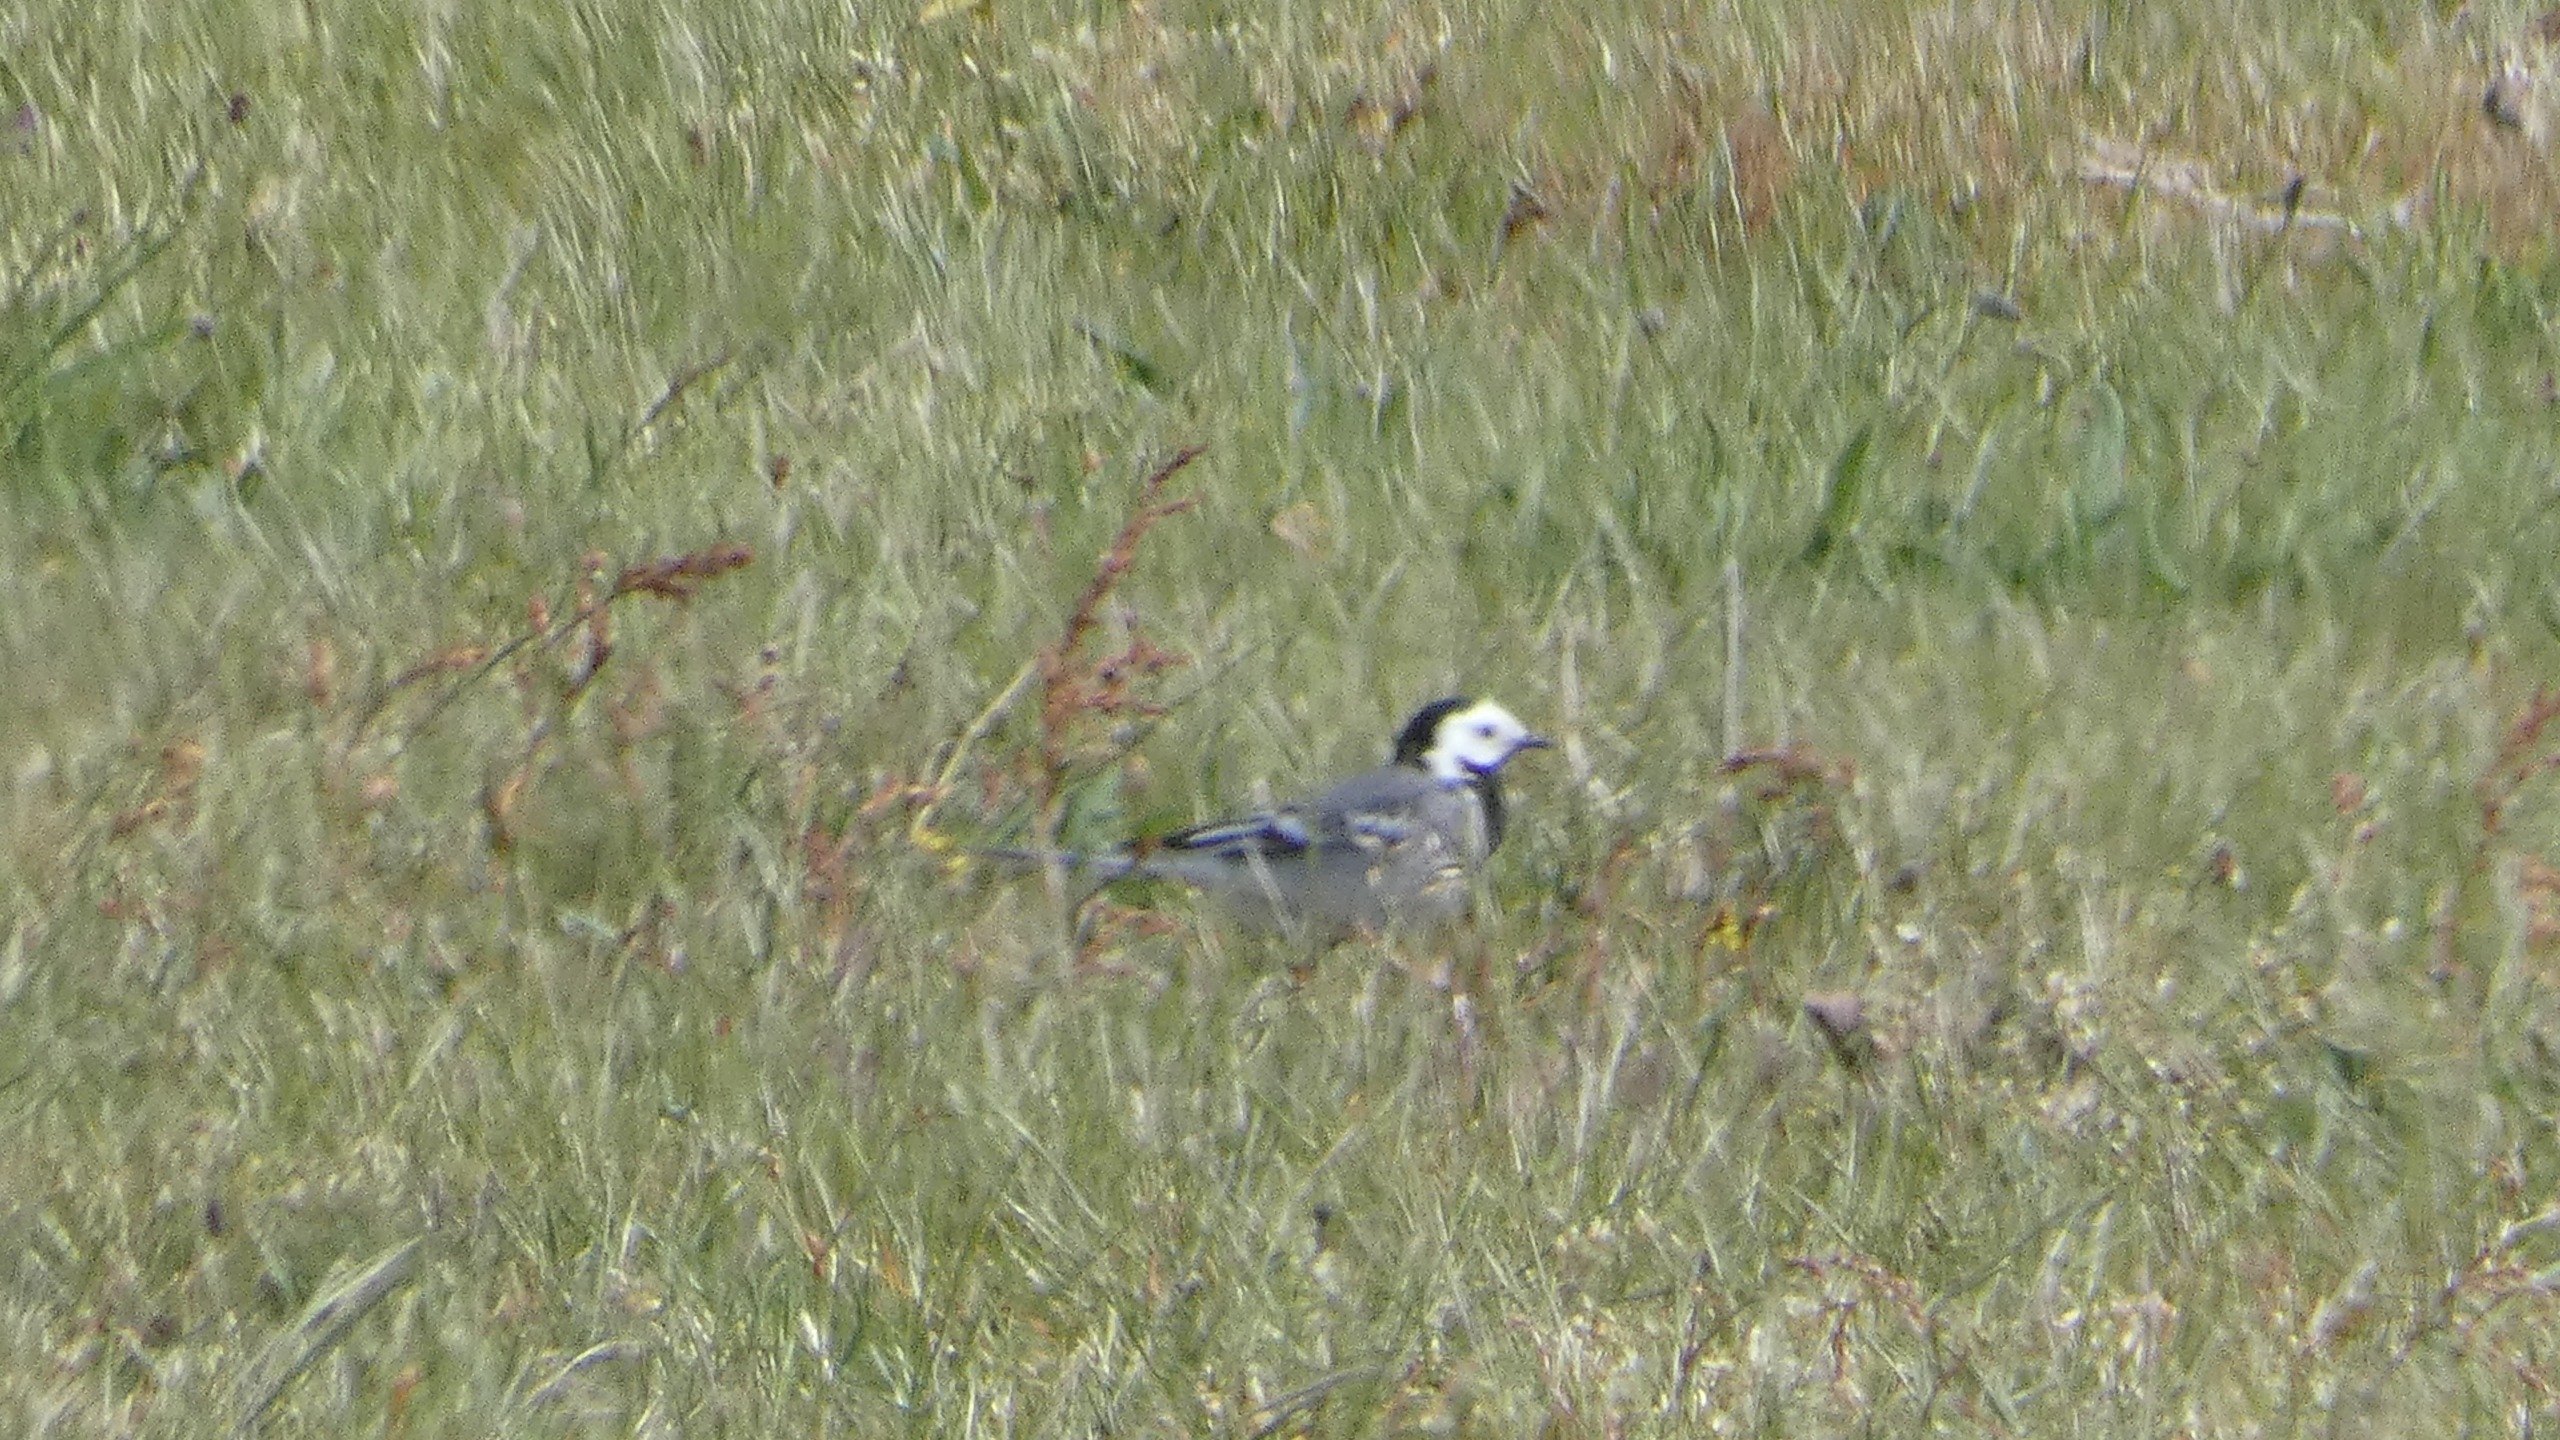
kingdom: Animalia
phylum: Chordata
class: Aves
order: Passeriformes
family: Motacillidae
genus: Motacilla
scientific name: Motacilla alba
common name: Hvid vipstjert
